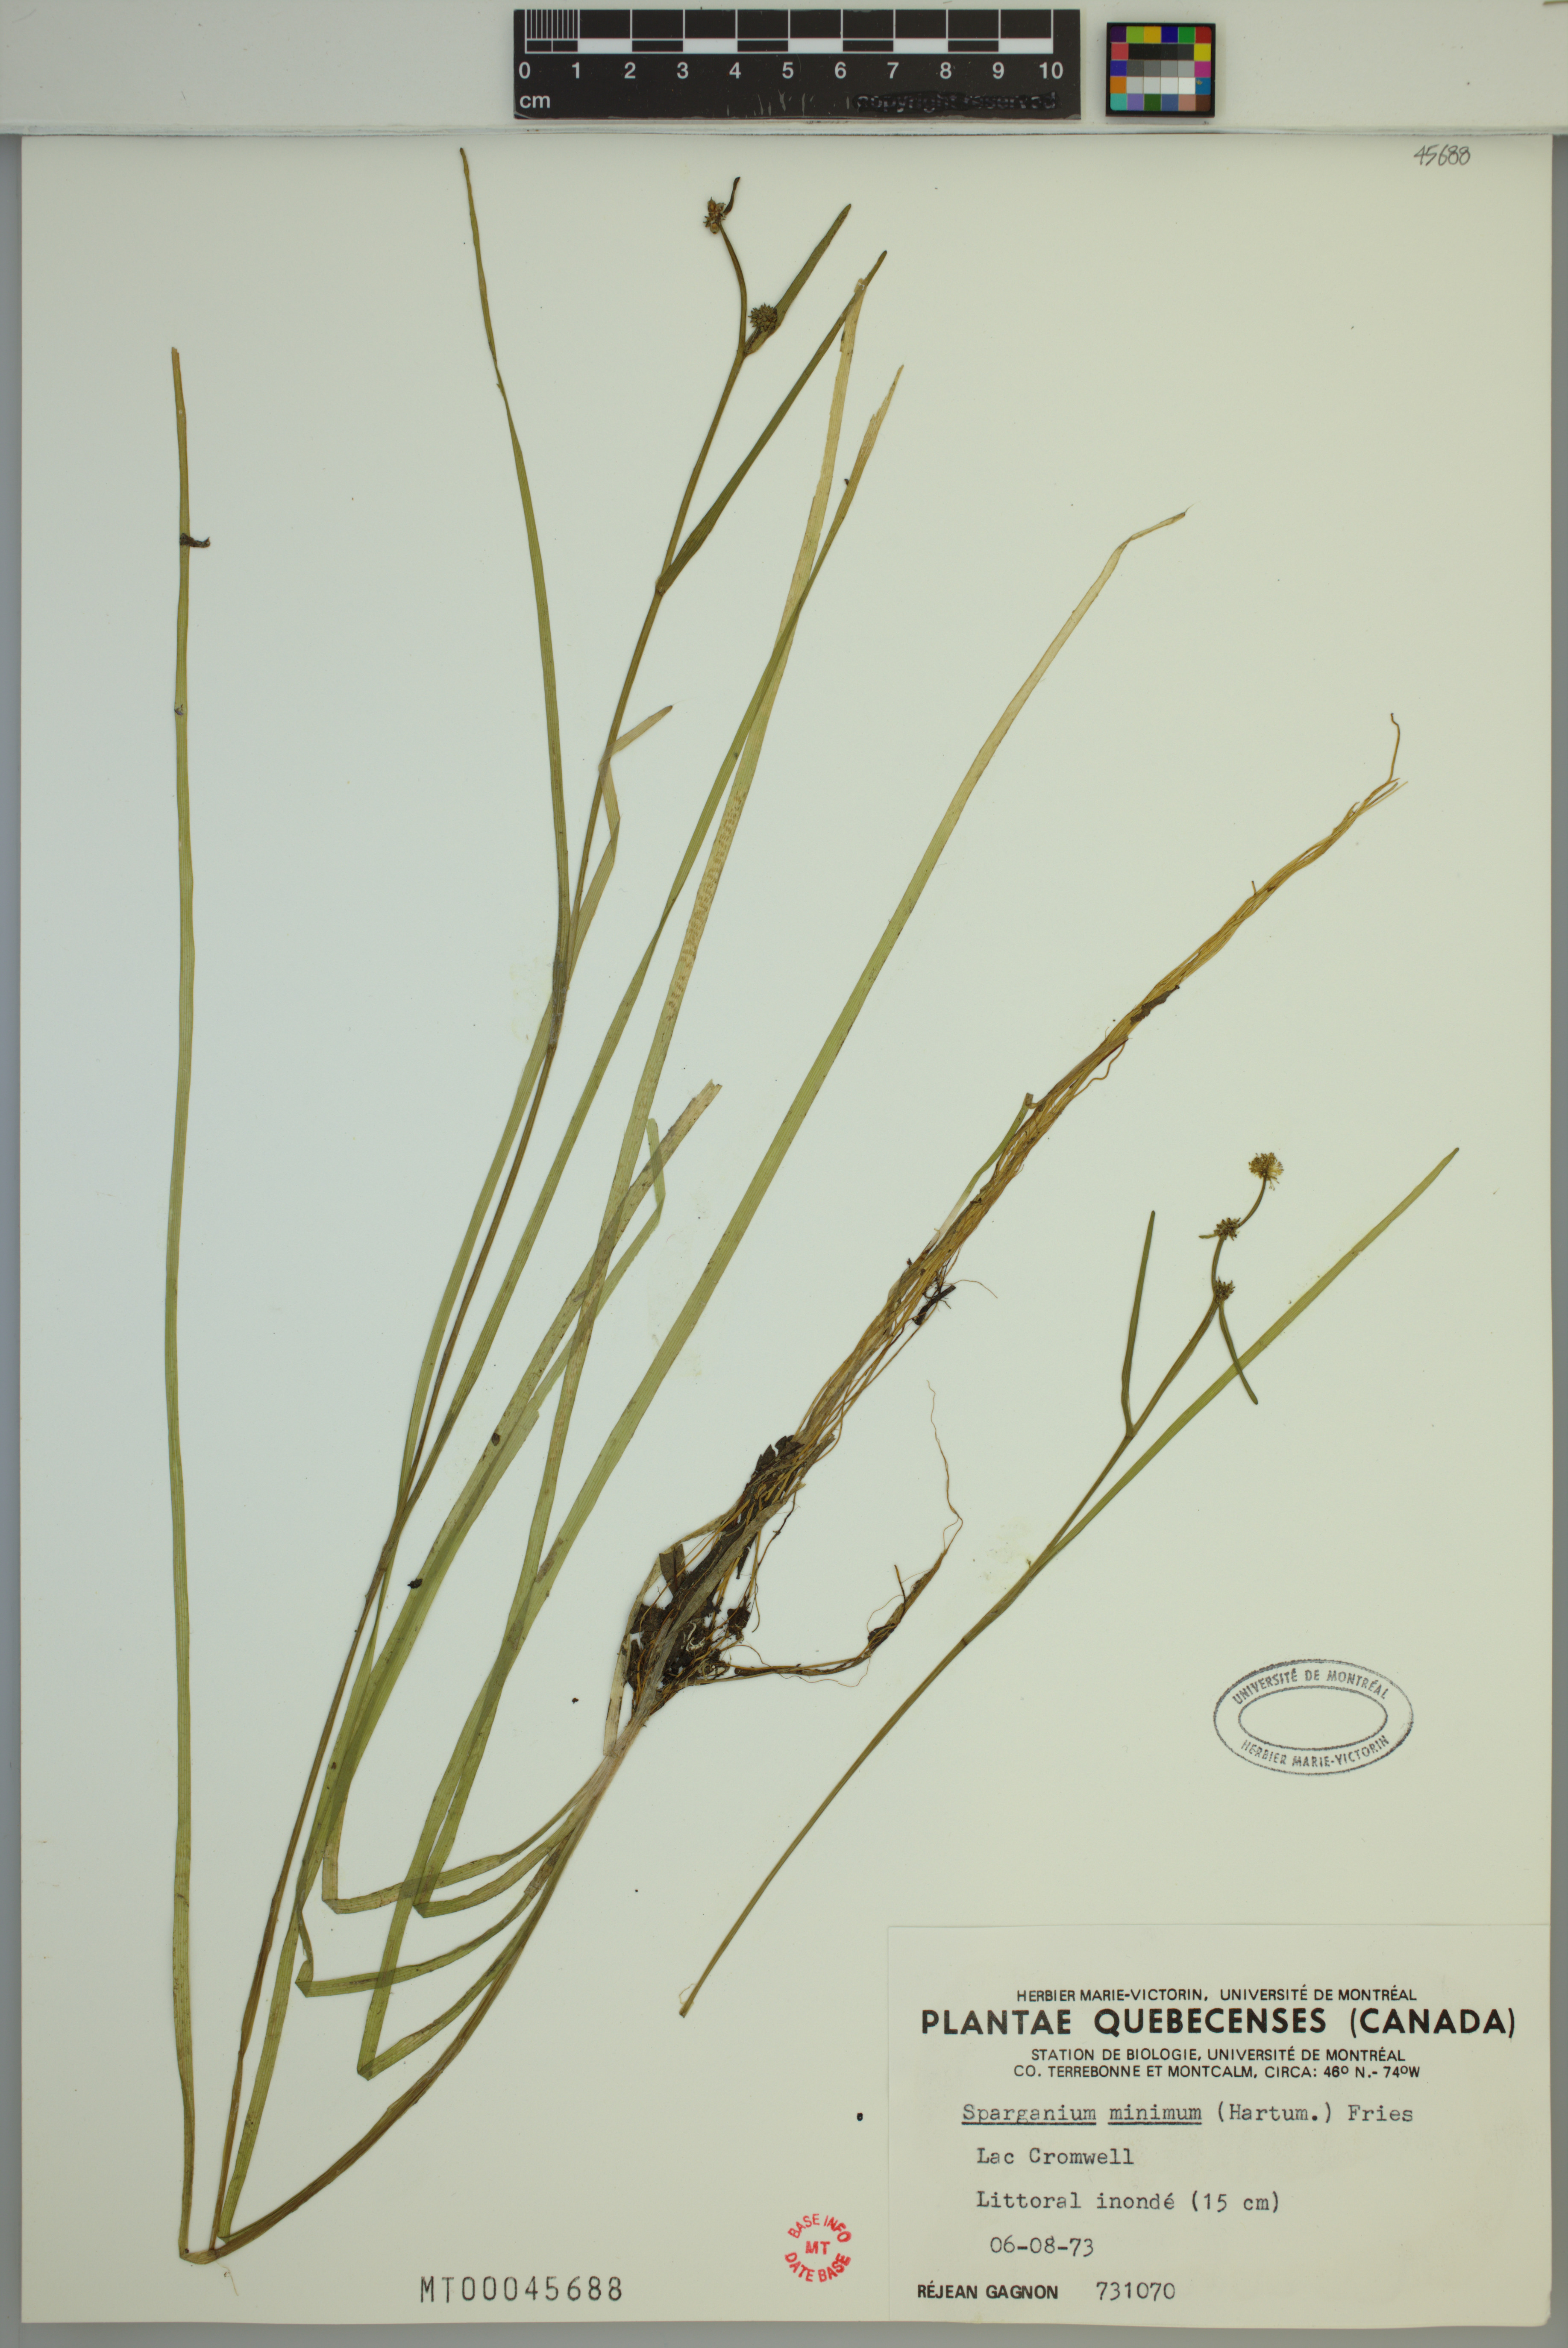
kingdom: Plantae
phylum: Tracheophyta
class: Liliopsida
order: Poales
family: Typhaceae
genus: Sparganium
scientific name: Sparganium natans
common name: Least bur-reed
